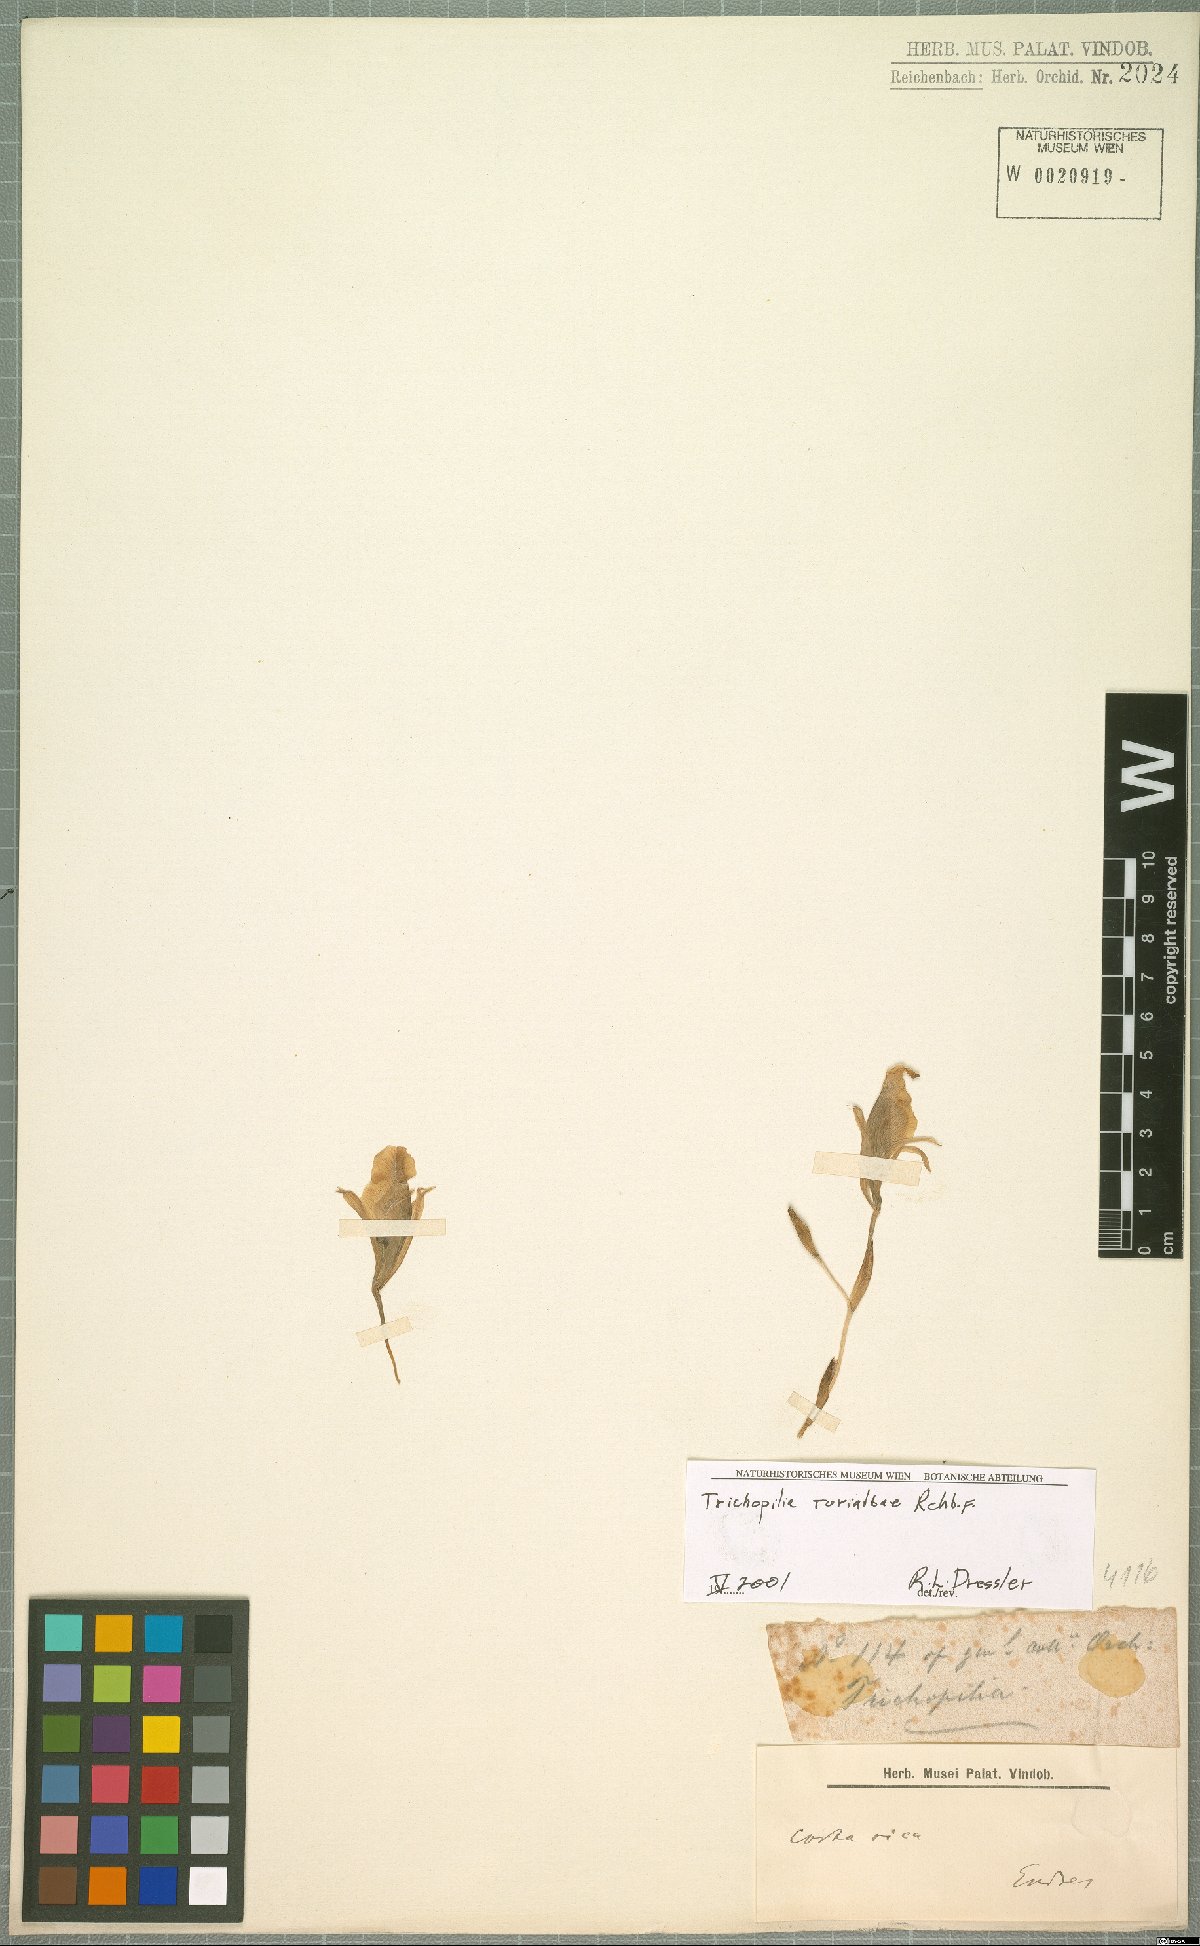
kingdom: Plantae
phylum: Tracheophyta
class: Liliopsida
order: Asparagales
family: Orchidaceae
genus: Trichopilia
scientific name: Trichopilia turialbae
